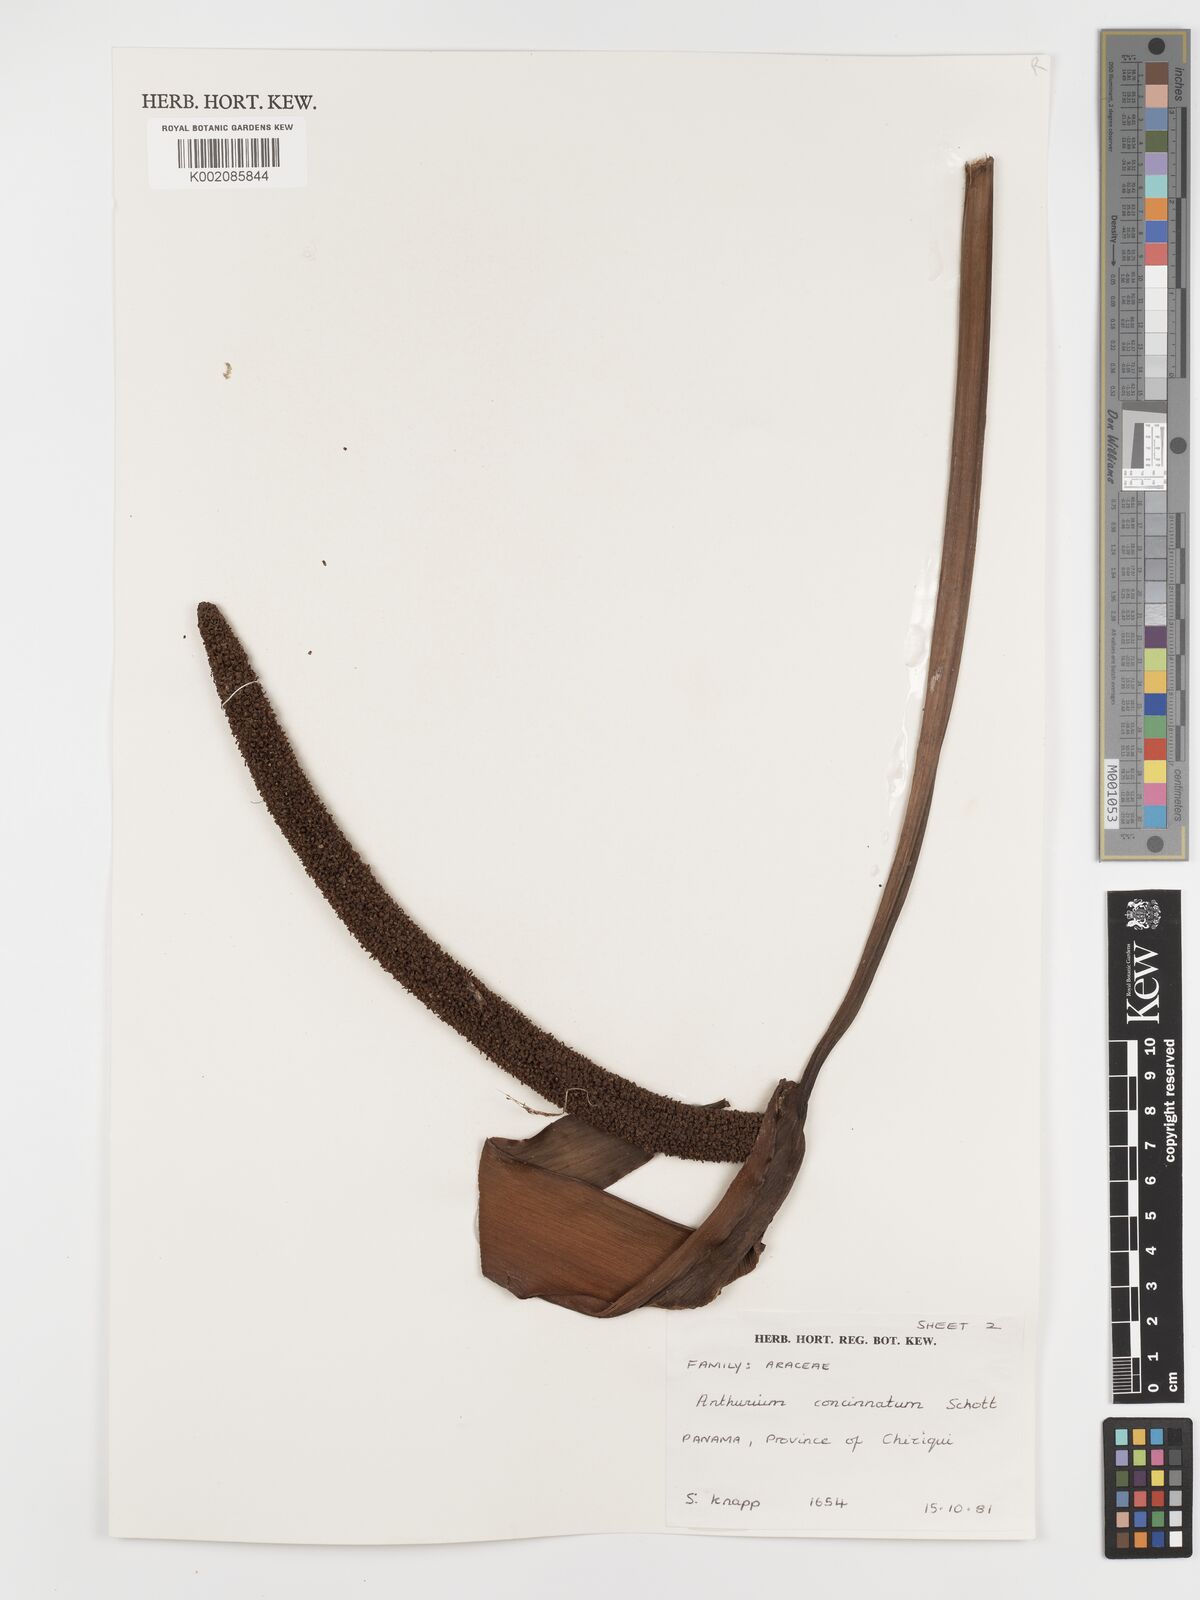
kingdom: Plantae
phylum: Tracheophyta
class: Liliopsida
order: Alismatales
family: Araceae
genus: Anthurium
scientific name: Anthurium concinnatum
